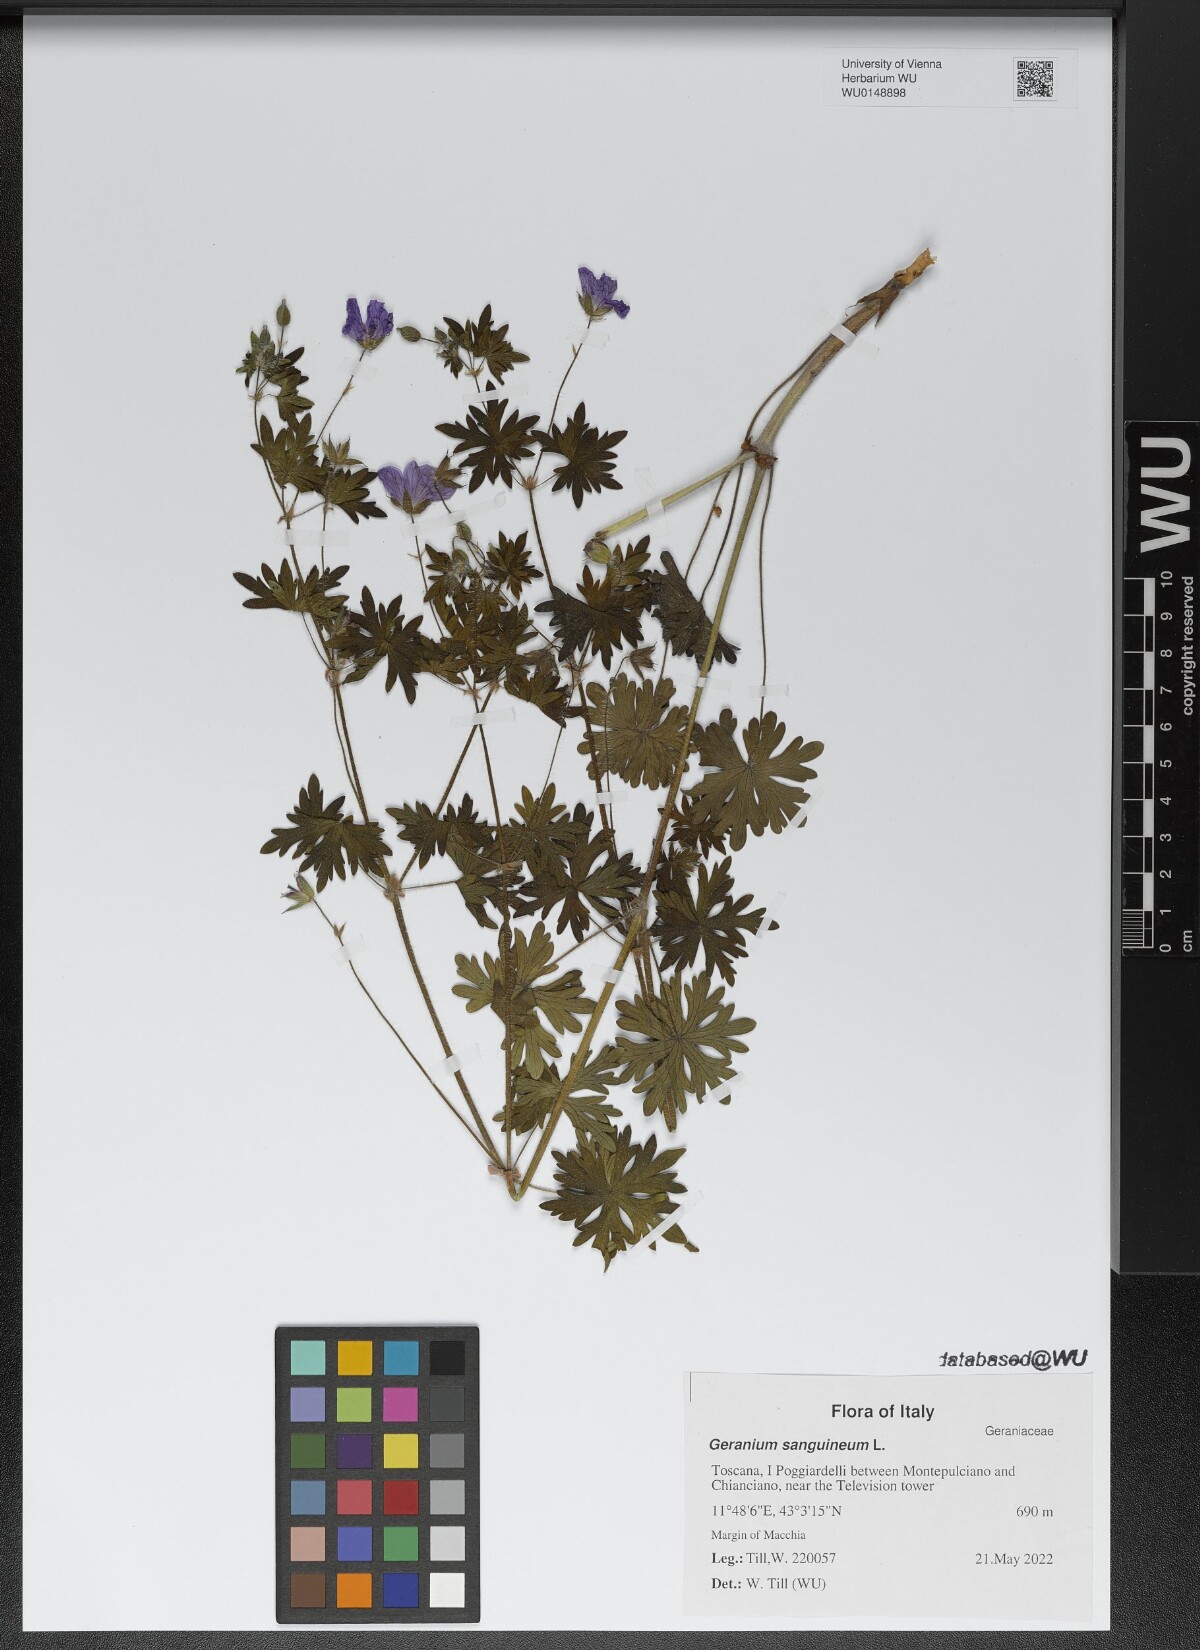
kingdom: Plantae
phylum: Tracheophyta
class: Magnoliopsida
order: Geraniales
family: Geraniaceae
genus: Geranium
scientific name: Geranium sanguineum
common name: Bloody crane's-bill
